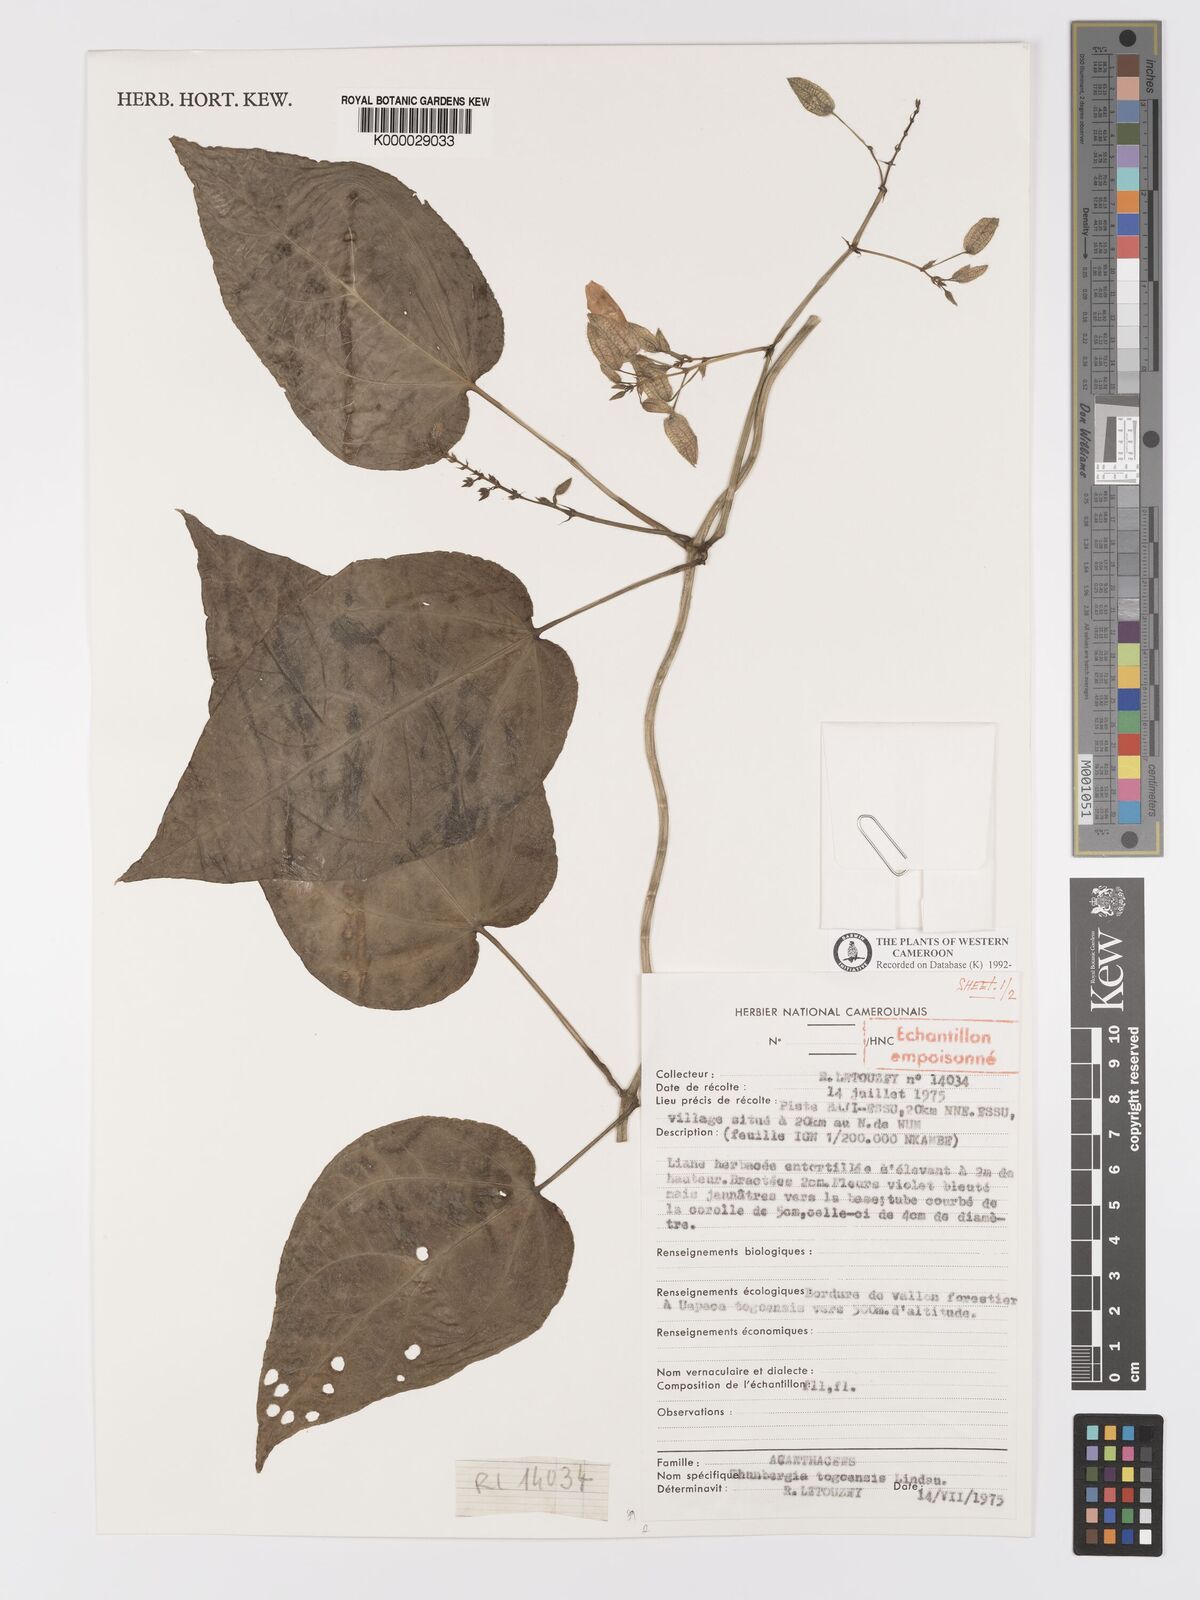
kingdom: Plantae
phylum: Tracheophyta
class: Magnoliopsida
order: Lamiales
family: Acanthaceae
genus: Thunbergia
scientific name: Thunbergia togoensis
